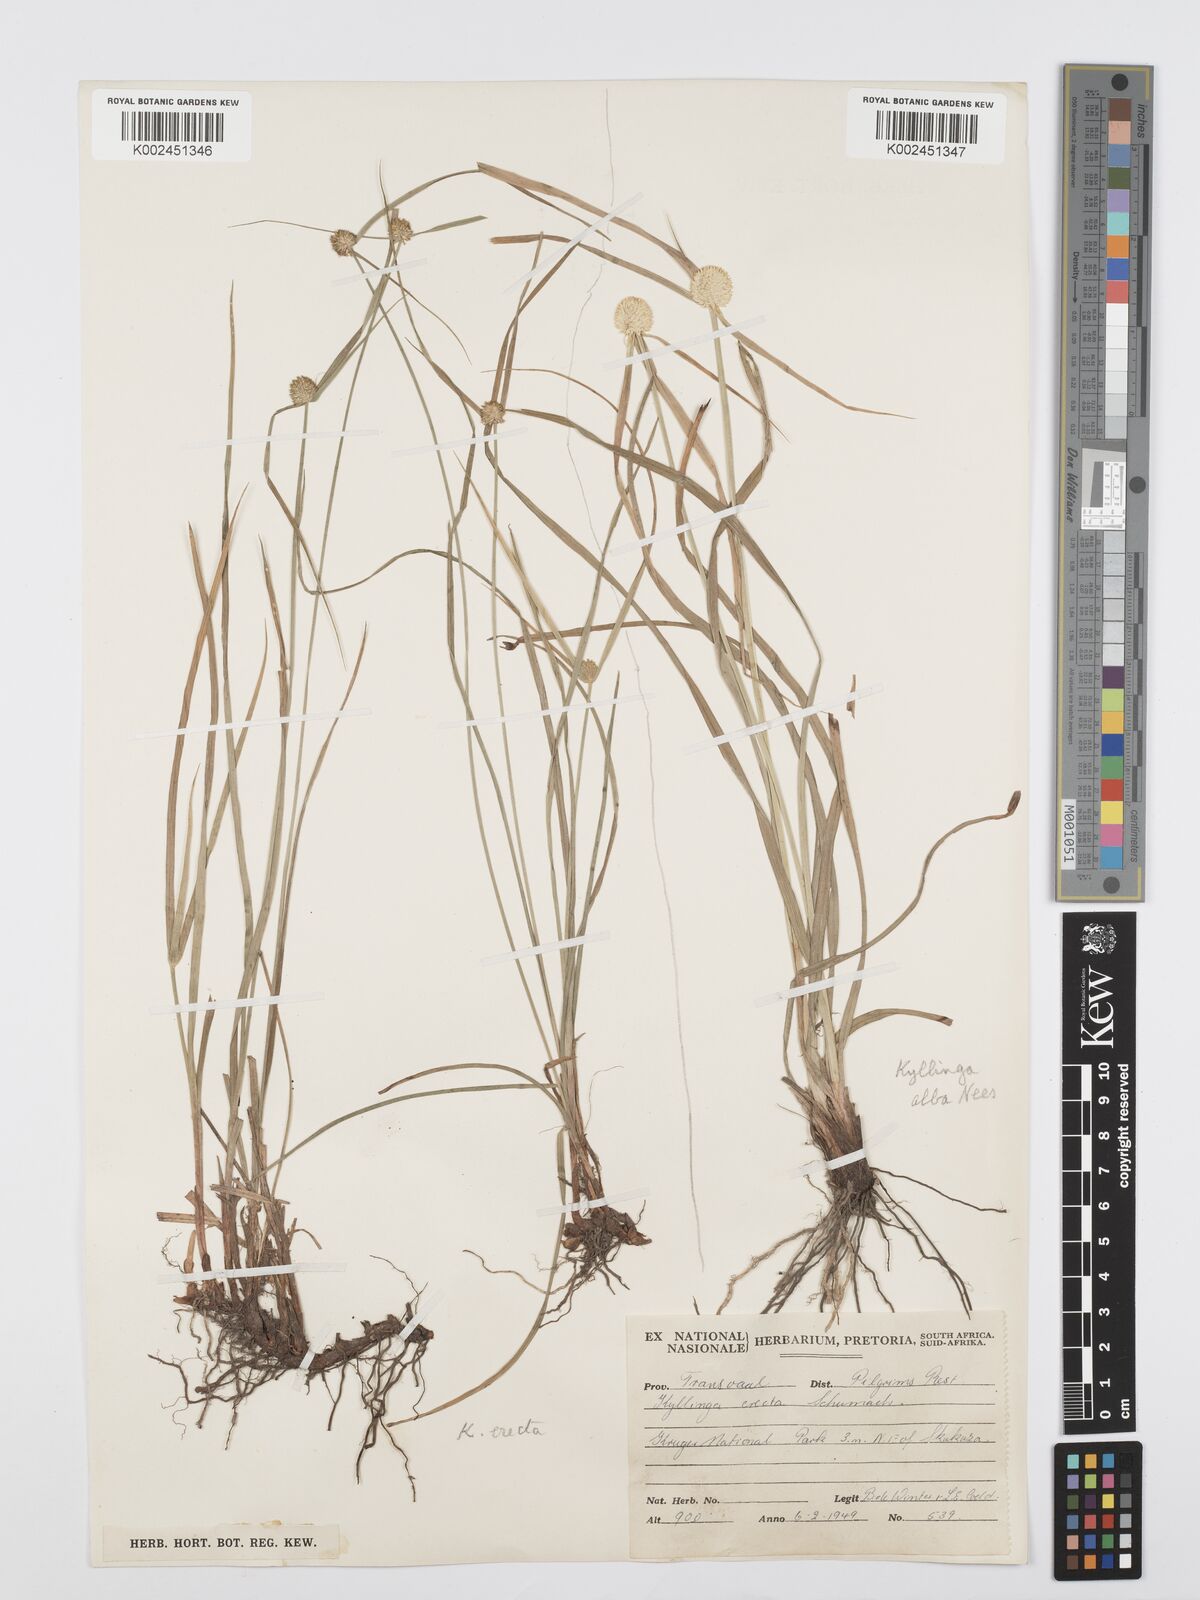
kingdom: Plantae
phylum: Tracheophyta
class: Liliopsida
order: Poales
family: Cyperaceae
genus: Cyperus
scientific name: Cyperus
